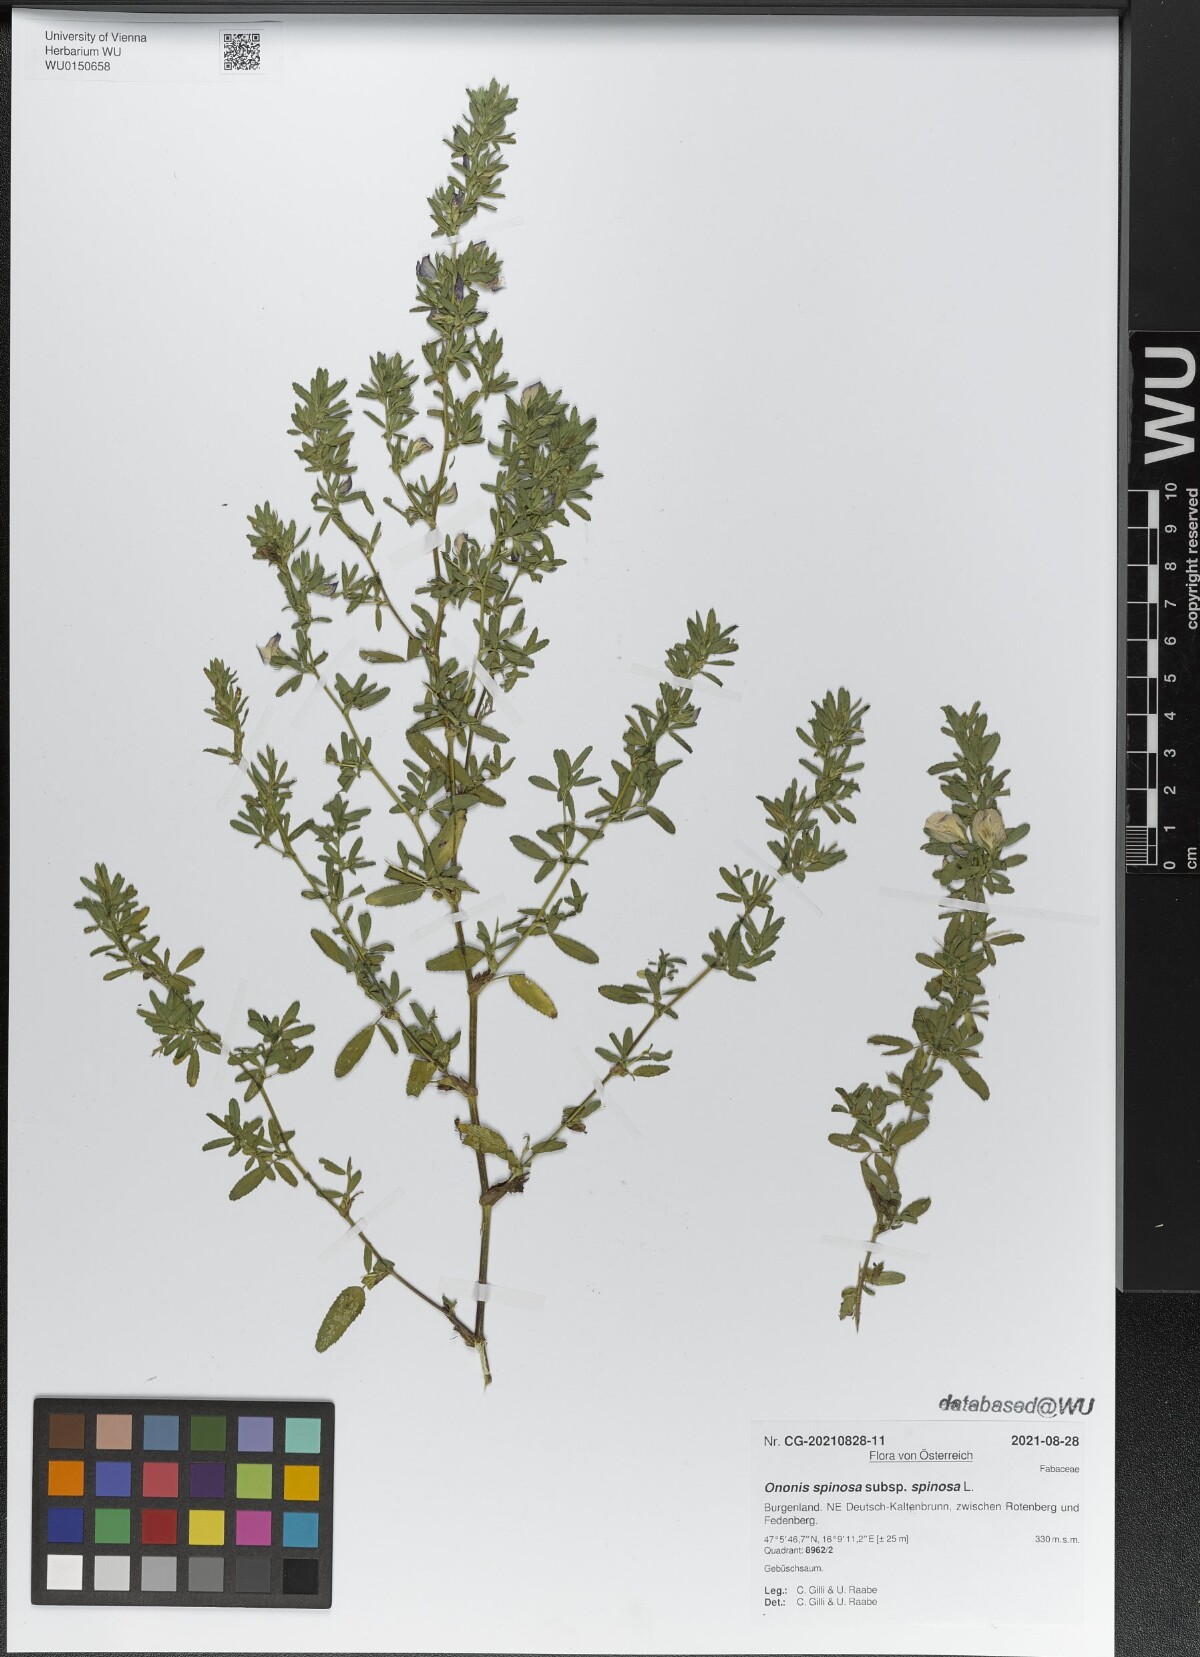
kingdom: Plantae
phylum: Tracheophyta
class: Magnoliopsida
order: Fabales
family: Fabaceae
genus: Ononis
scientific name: Ononis spinosa
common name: Spiny restharrow
